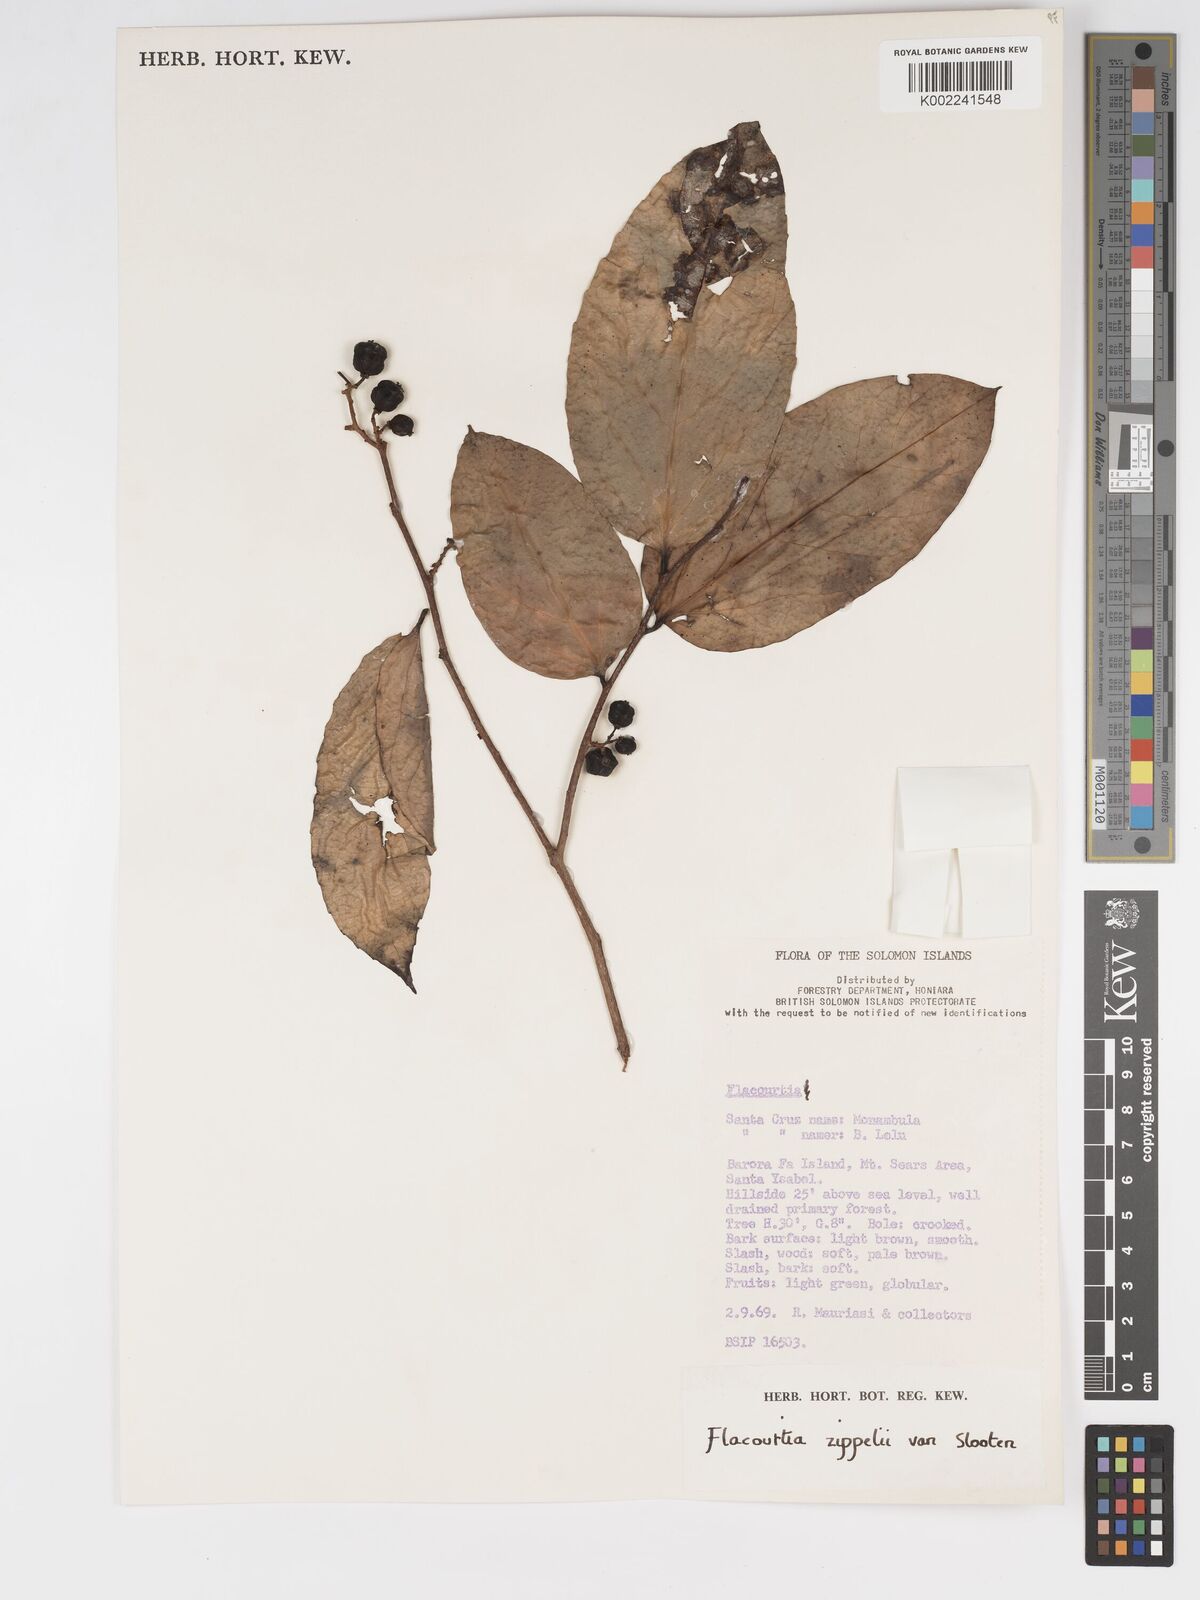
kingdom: Plantae
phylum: Tracheophyta
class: Magnoliopsida
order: Malpighiales
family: Salicaceae
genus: Flacourtia
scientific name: Flacourtia zippelii
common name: Zippeli plum
